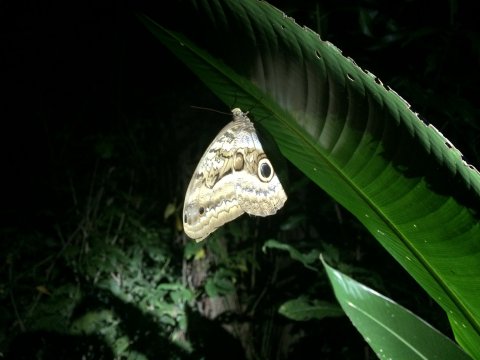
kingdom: Animalia
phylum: Arthropoda
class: Insecta
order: Lepidoptera
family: Nymphalidae
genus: Caligo
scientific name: Caligo oedipus
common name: Fruhstorfer's Owl-Butterfly
